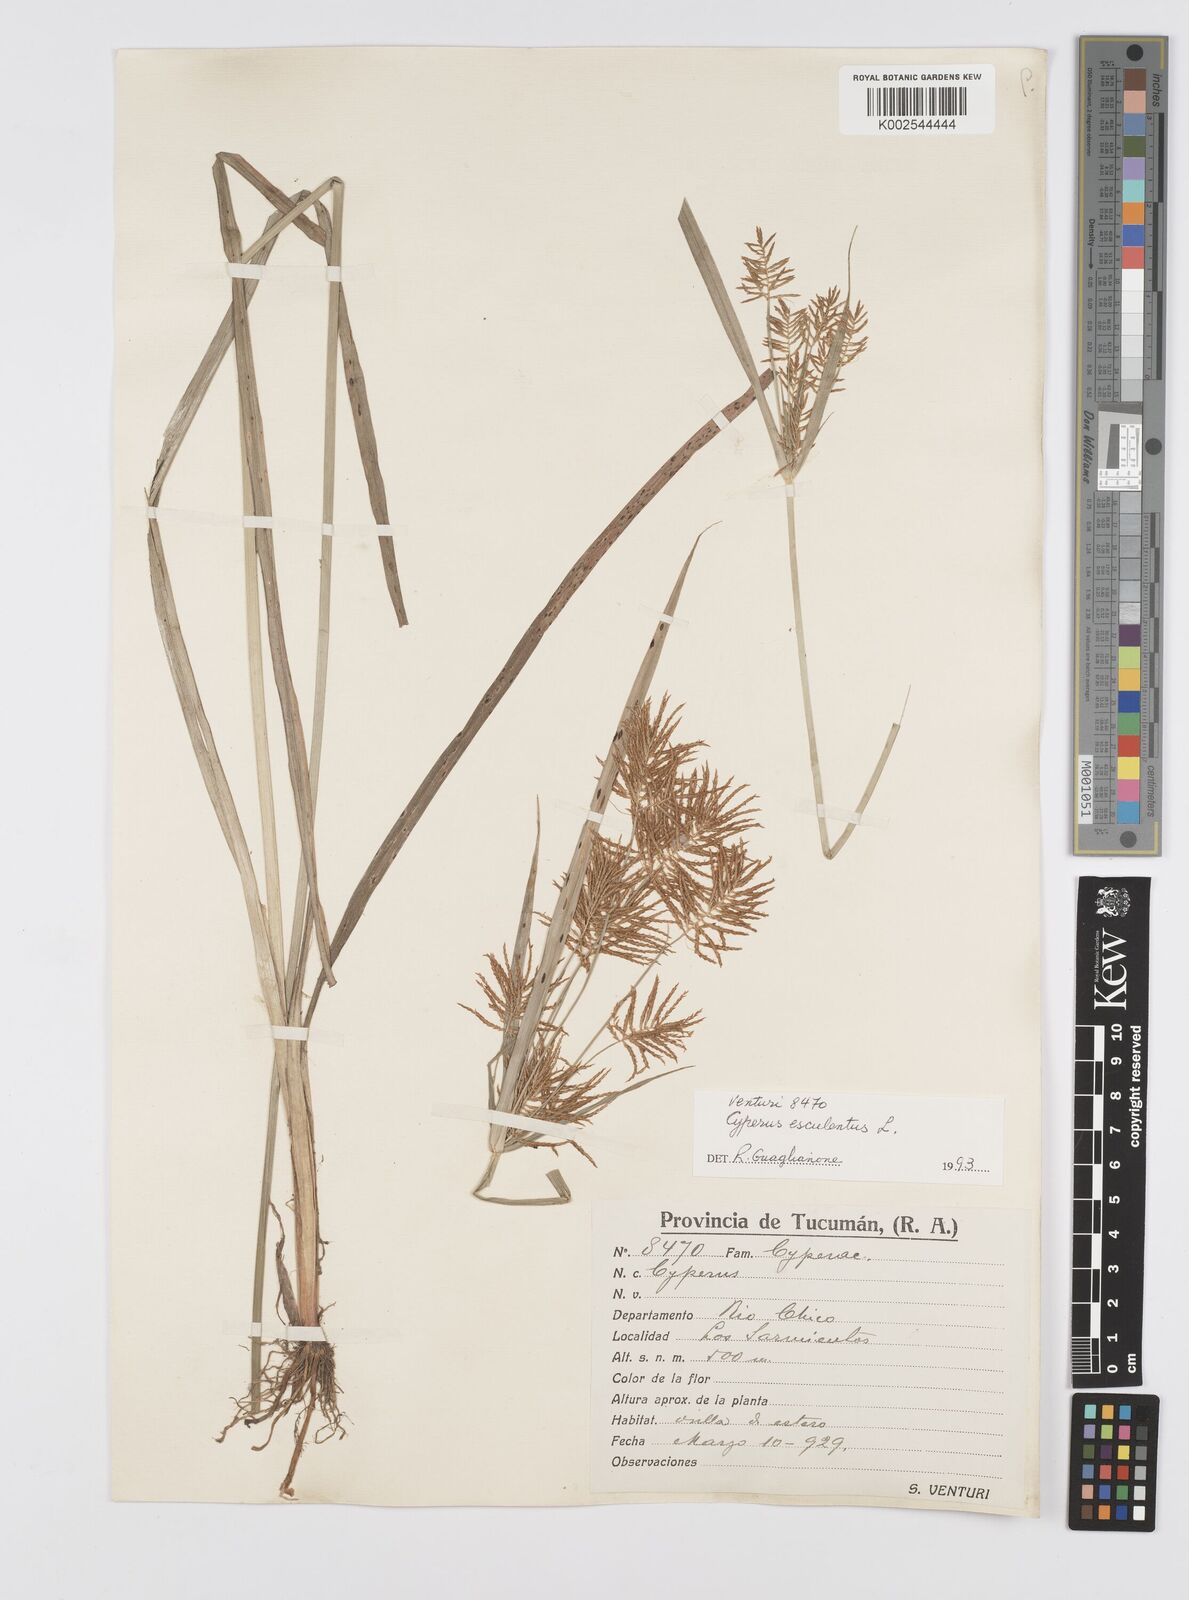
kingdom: Plantae
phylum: Tracheophyta
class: Liliopsida
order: Poales
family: Cyperaceae
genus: Cyperus
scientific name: Cyperus
